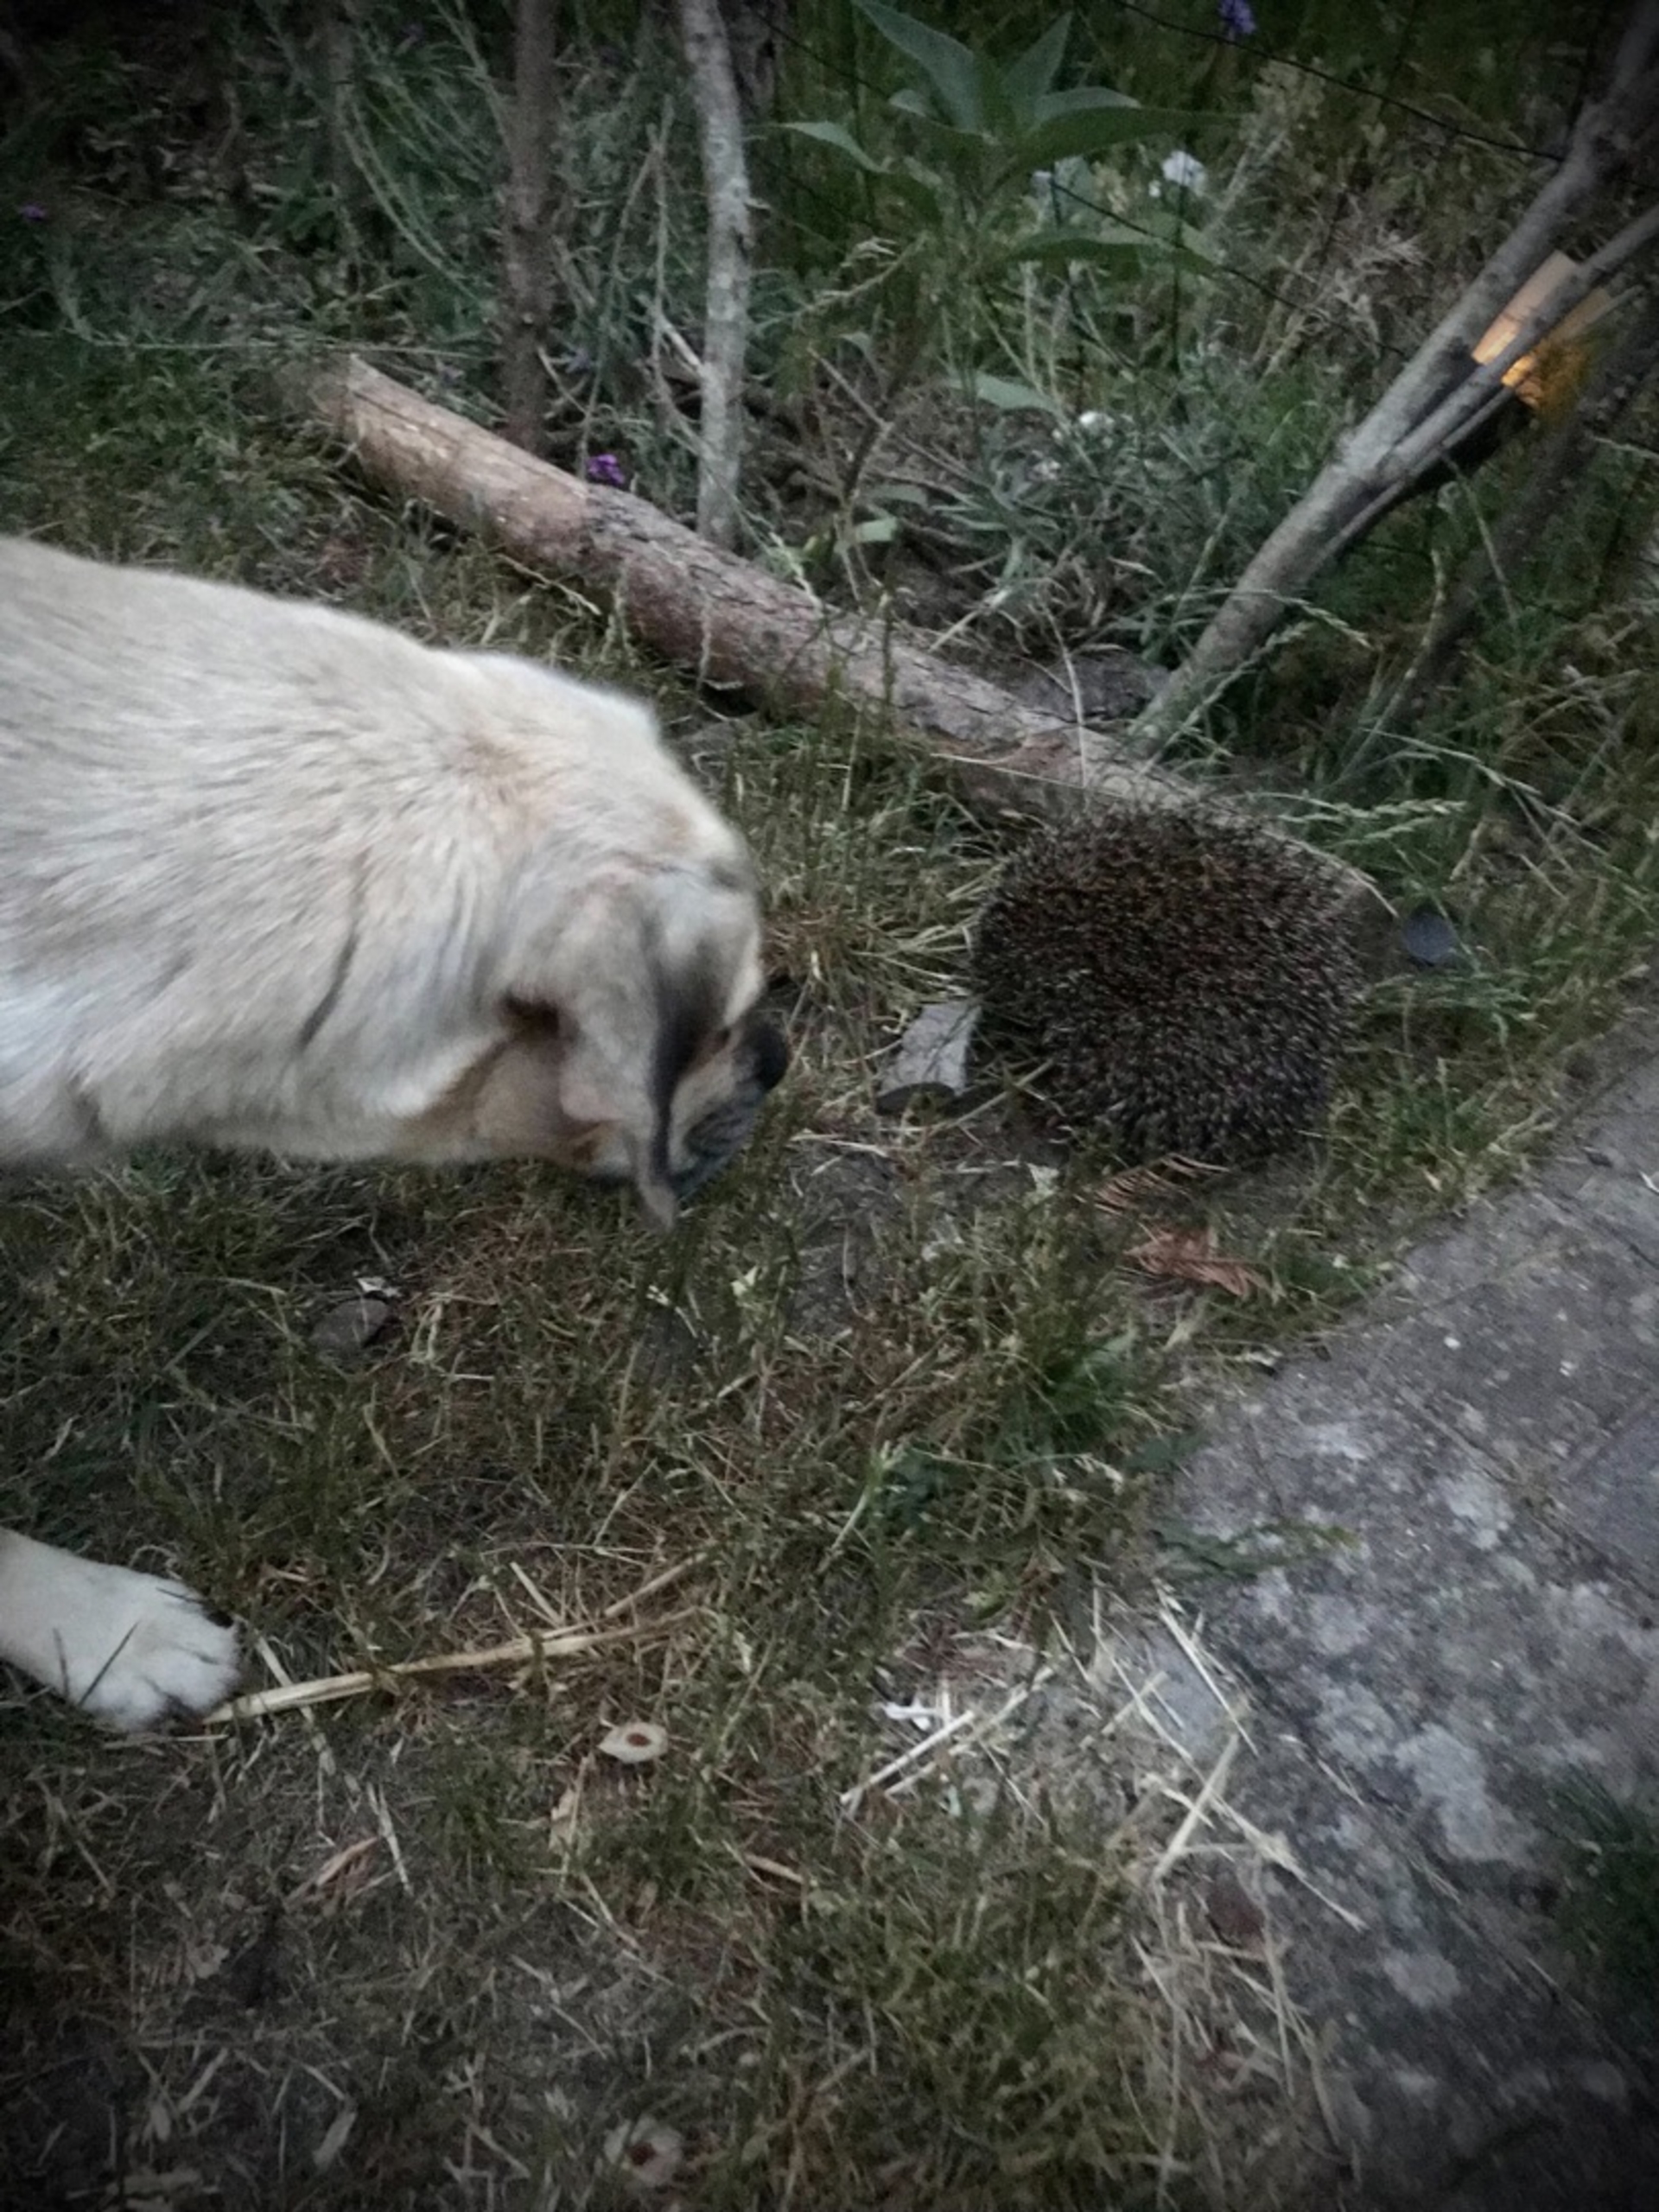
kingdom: Animalia
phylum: Chordata
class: Mammalia
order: Erinaceomorpha
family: Erinaceidae
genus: Erinaceus
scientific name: Erinaceus europaeus
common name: Pindsvin
